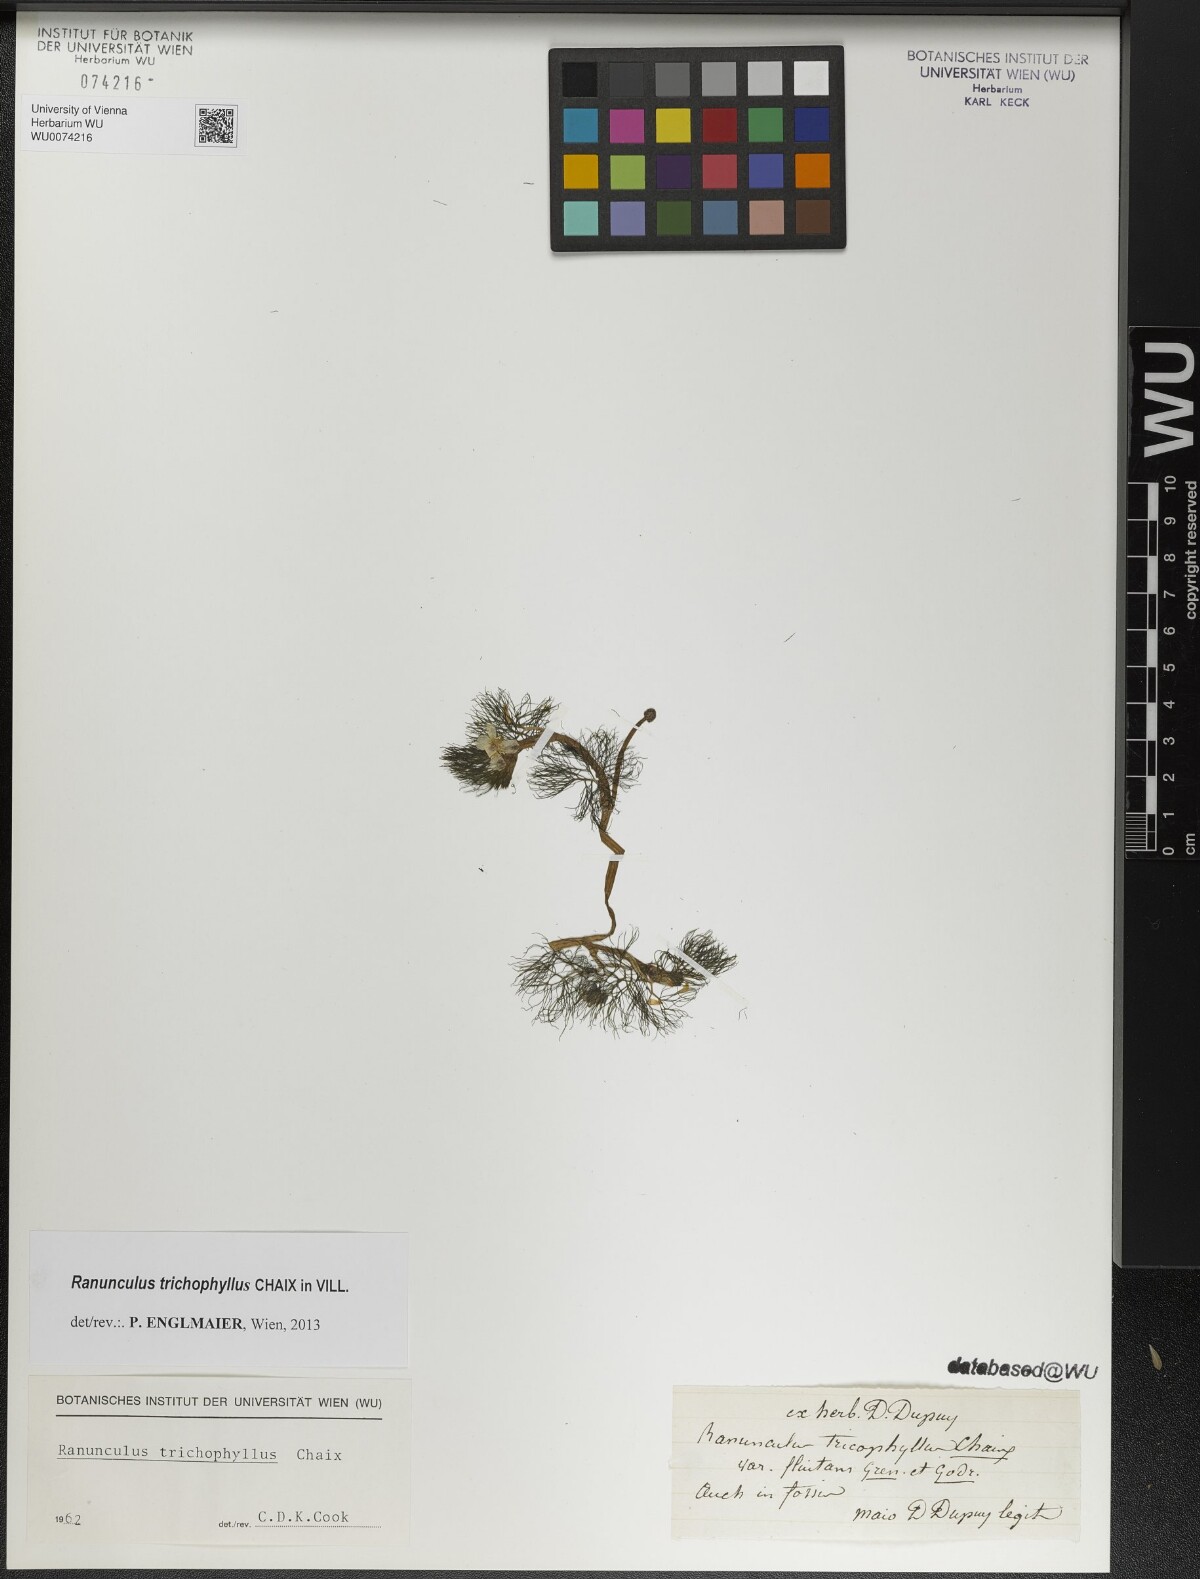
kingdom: Plantae
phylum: Tracheophyta
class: Magnoliopsida
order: Ranunculales
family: Ranunculaceae
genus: Ranunculus
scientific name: Ranunculus trichophyllus
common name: Thread-leaved water-crowfoot
